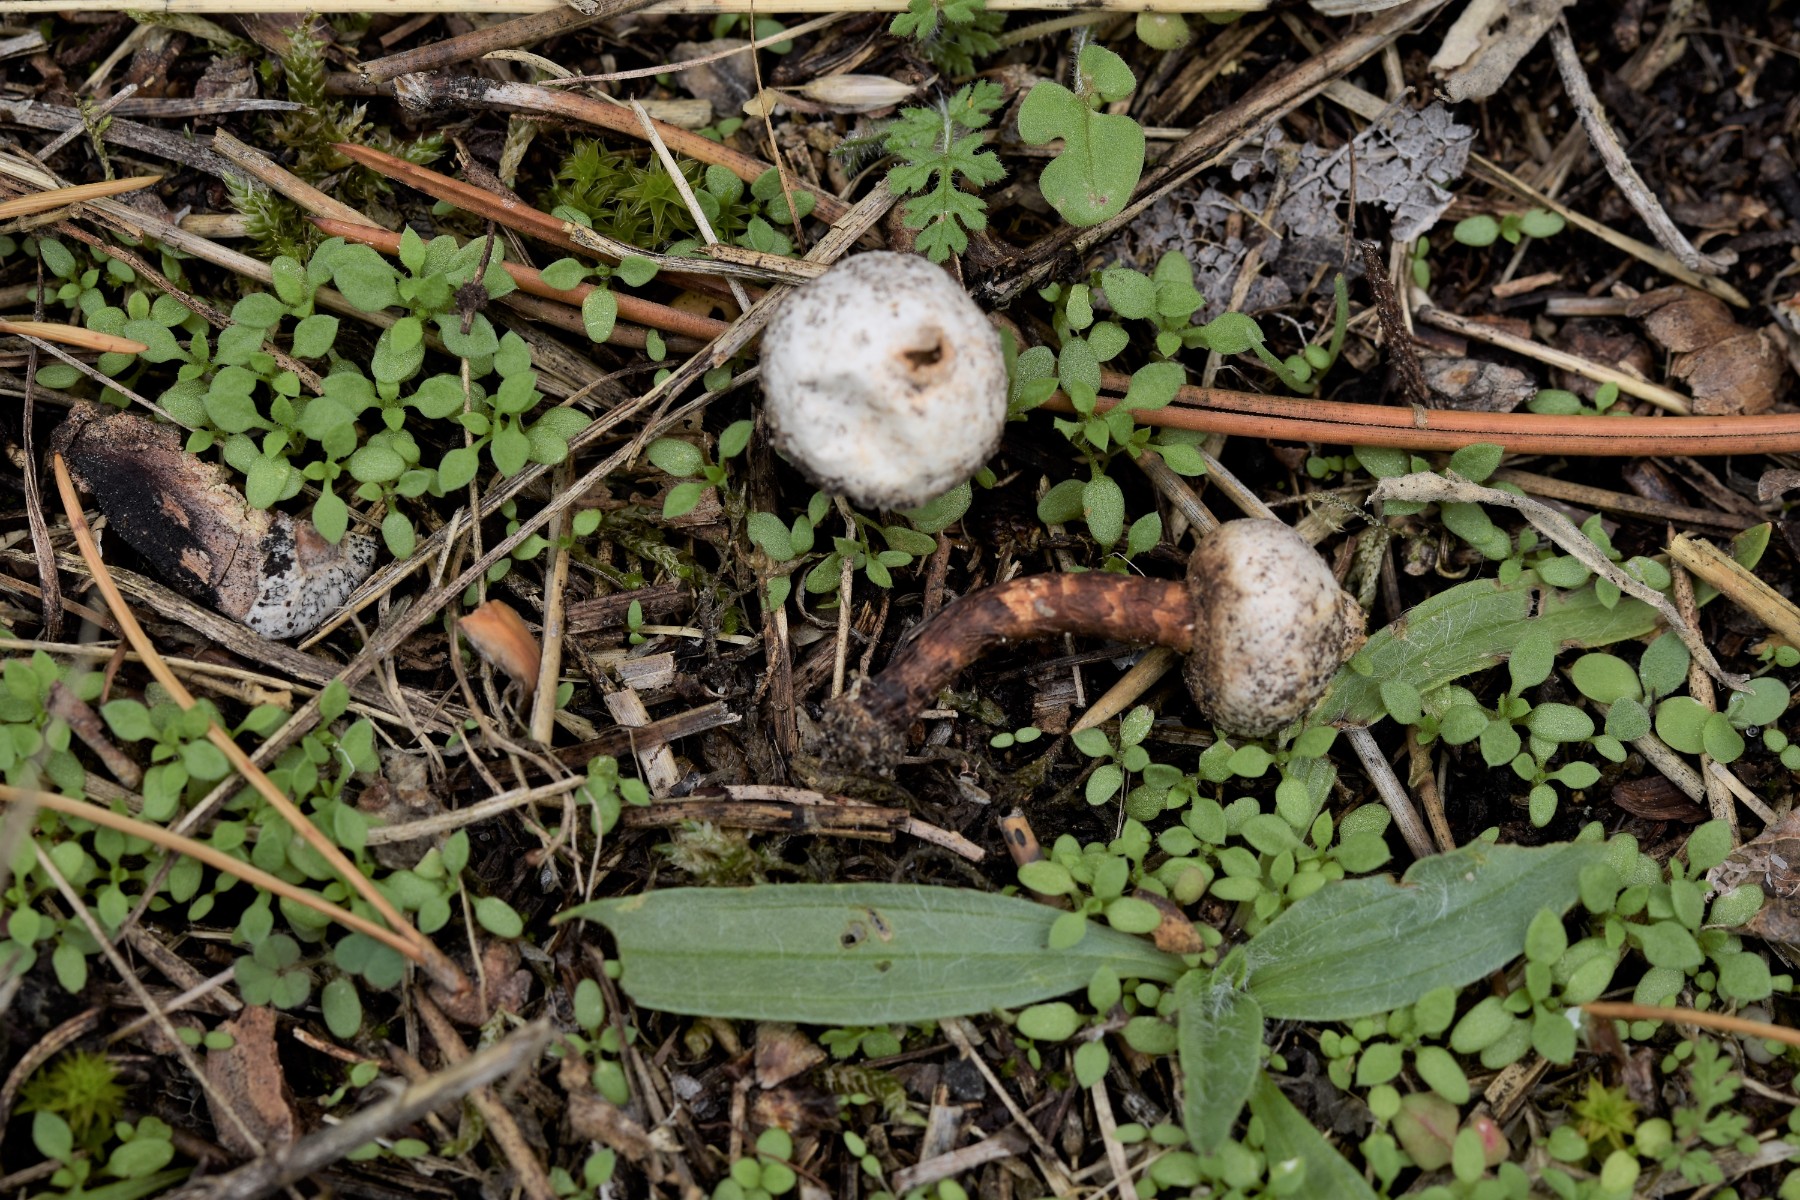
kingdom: Fungi
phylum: Basidiomycota
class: Agaricomycetes
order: Agaricales
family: Agaricaceae
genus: Tulostoma
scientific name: Tulostoma winterhoffii
